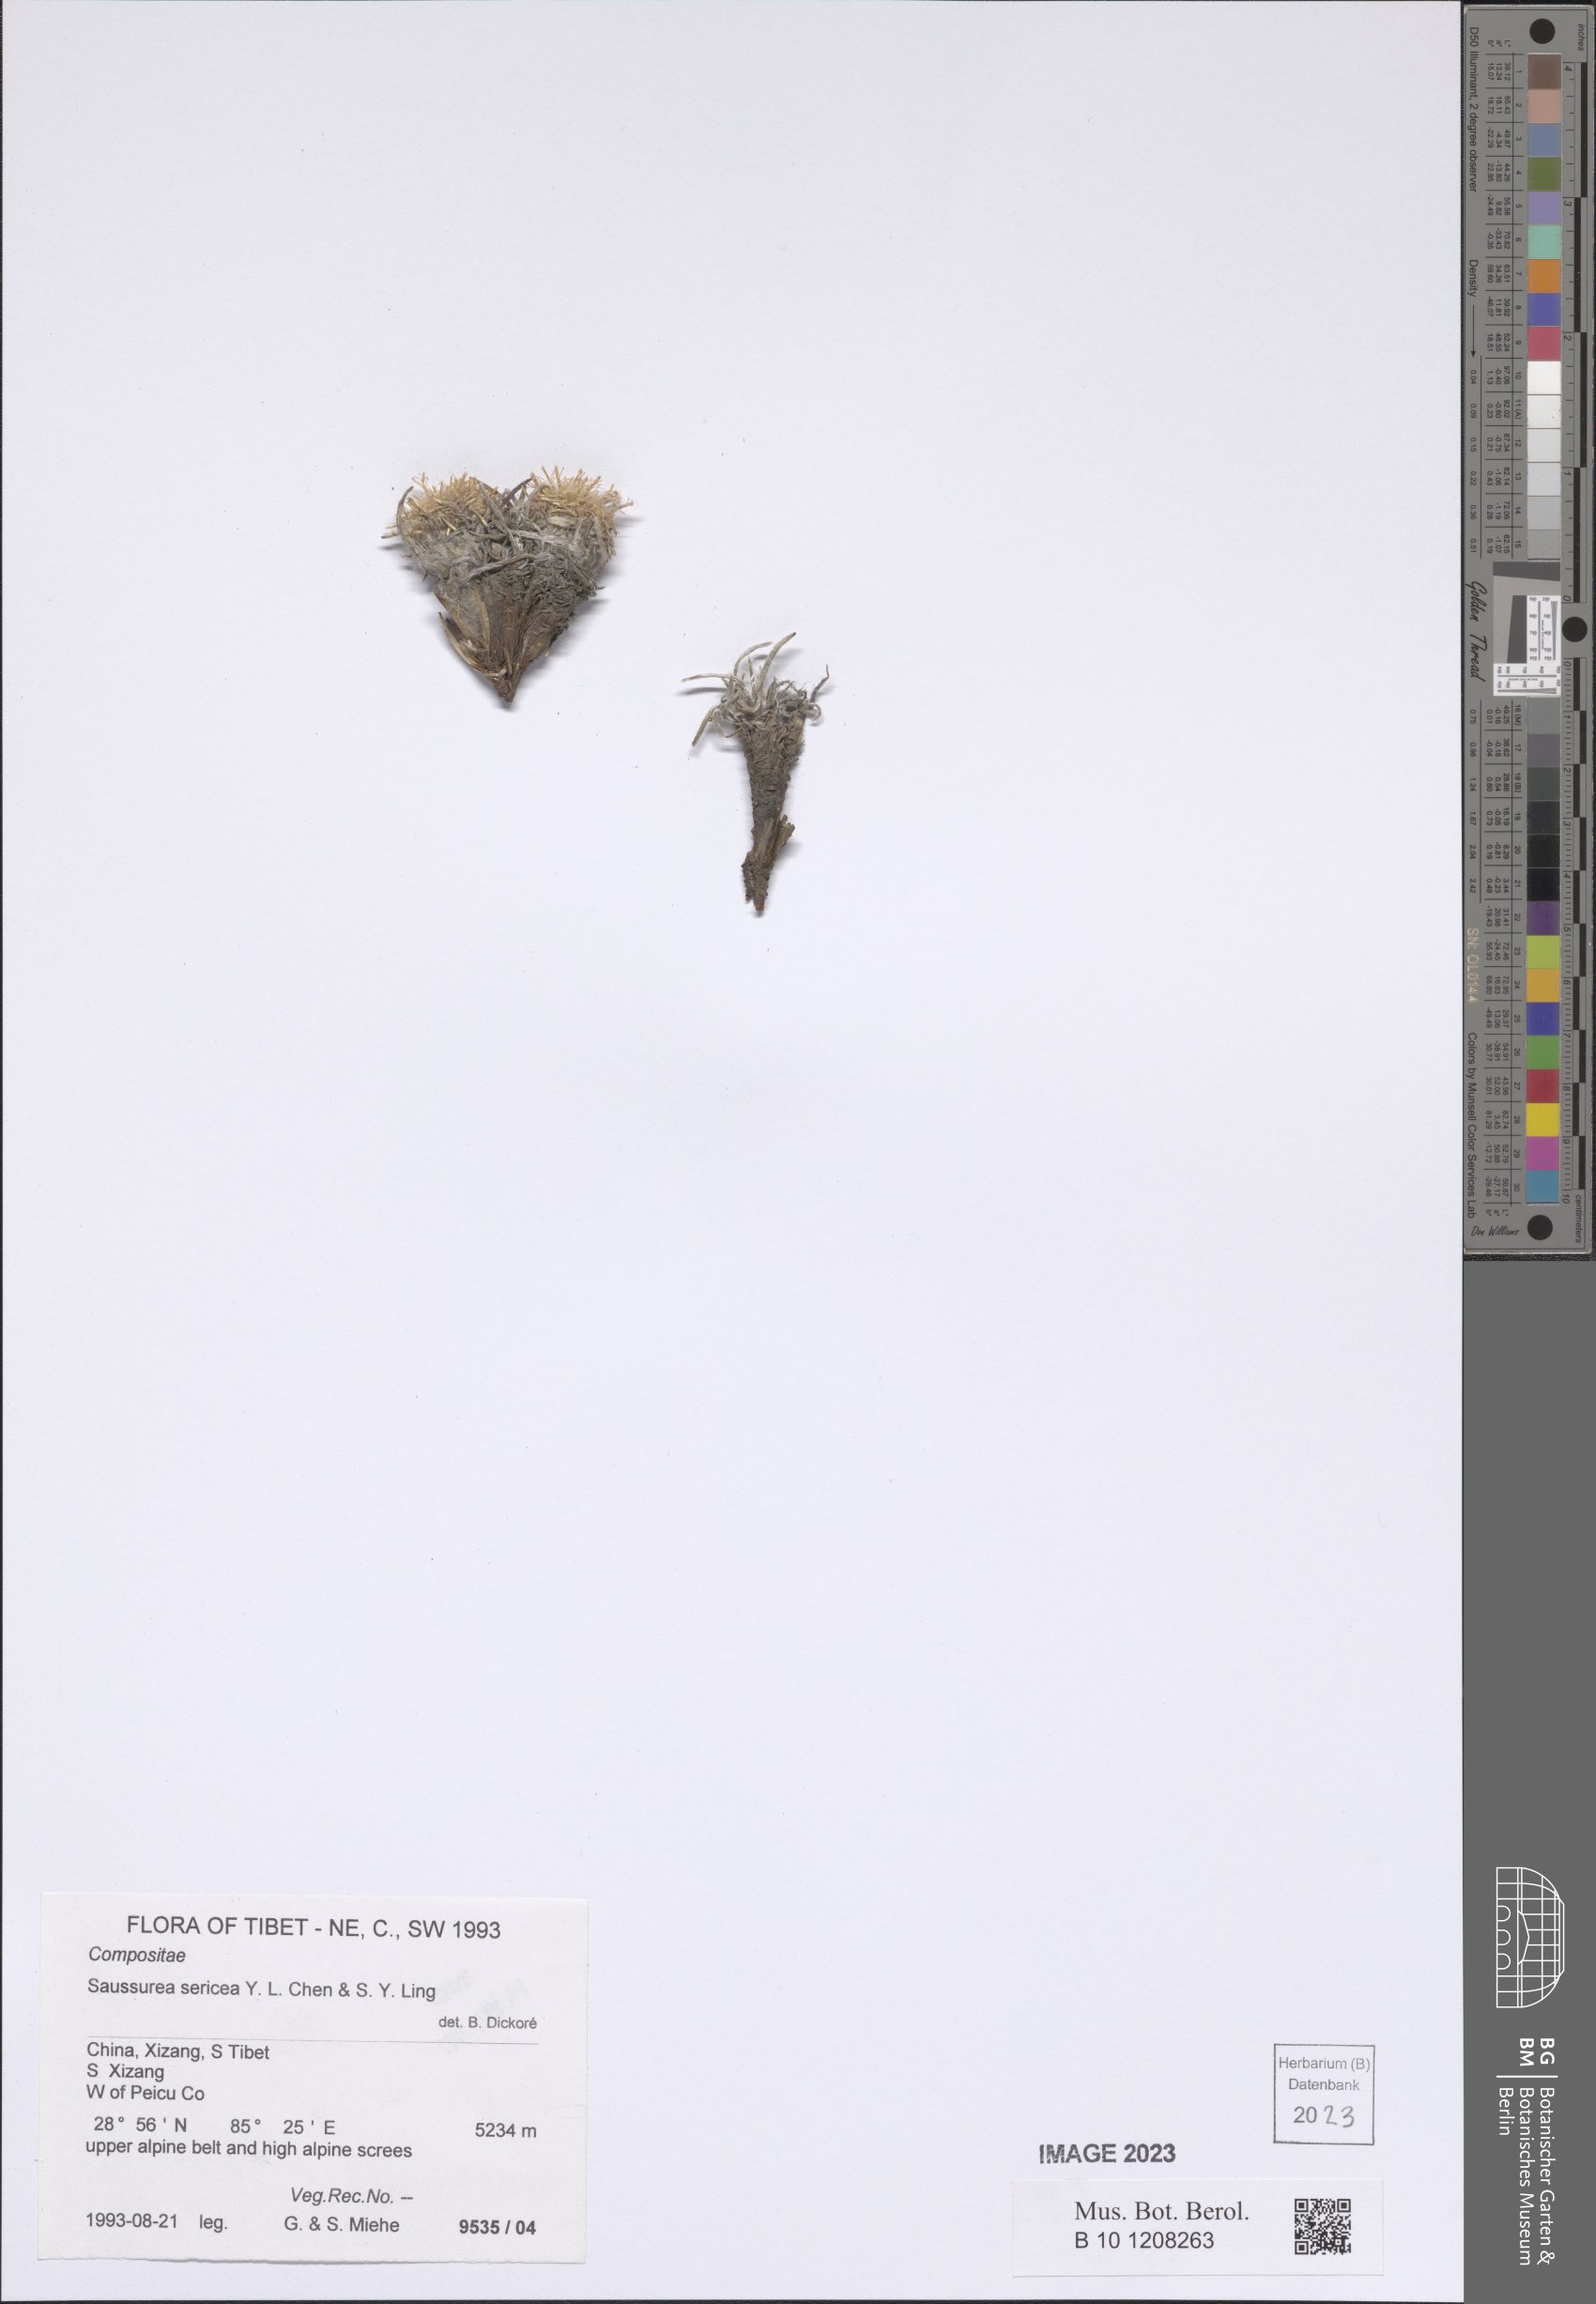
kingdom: Plantae
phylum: Tracheophyta
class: Magnoliopsida
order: Asterales
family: Asteraceae
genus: Saussurea
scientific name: Saussurea sericea
